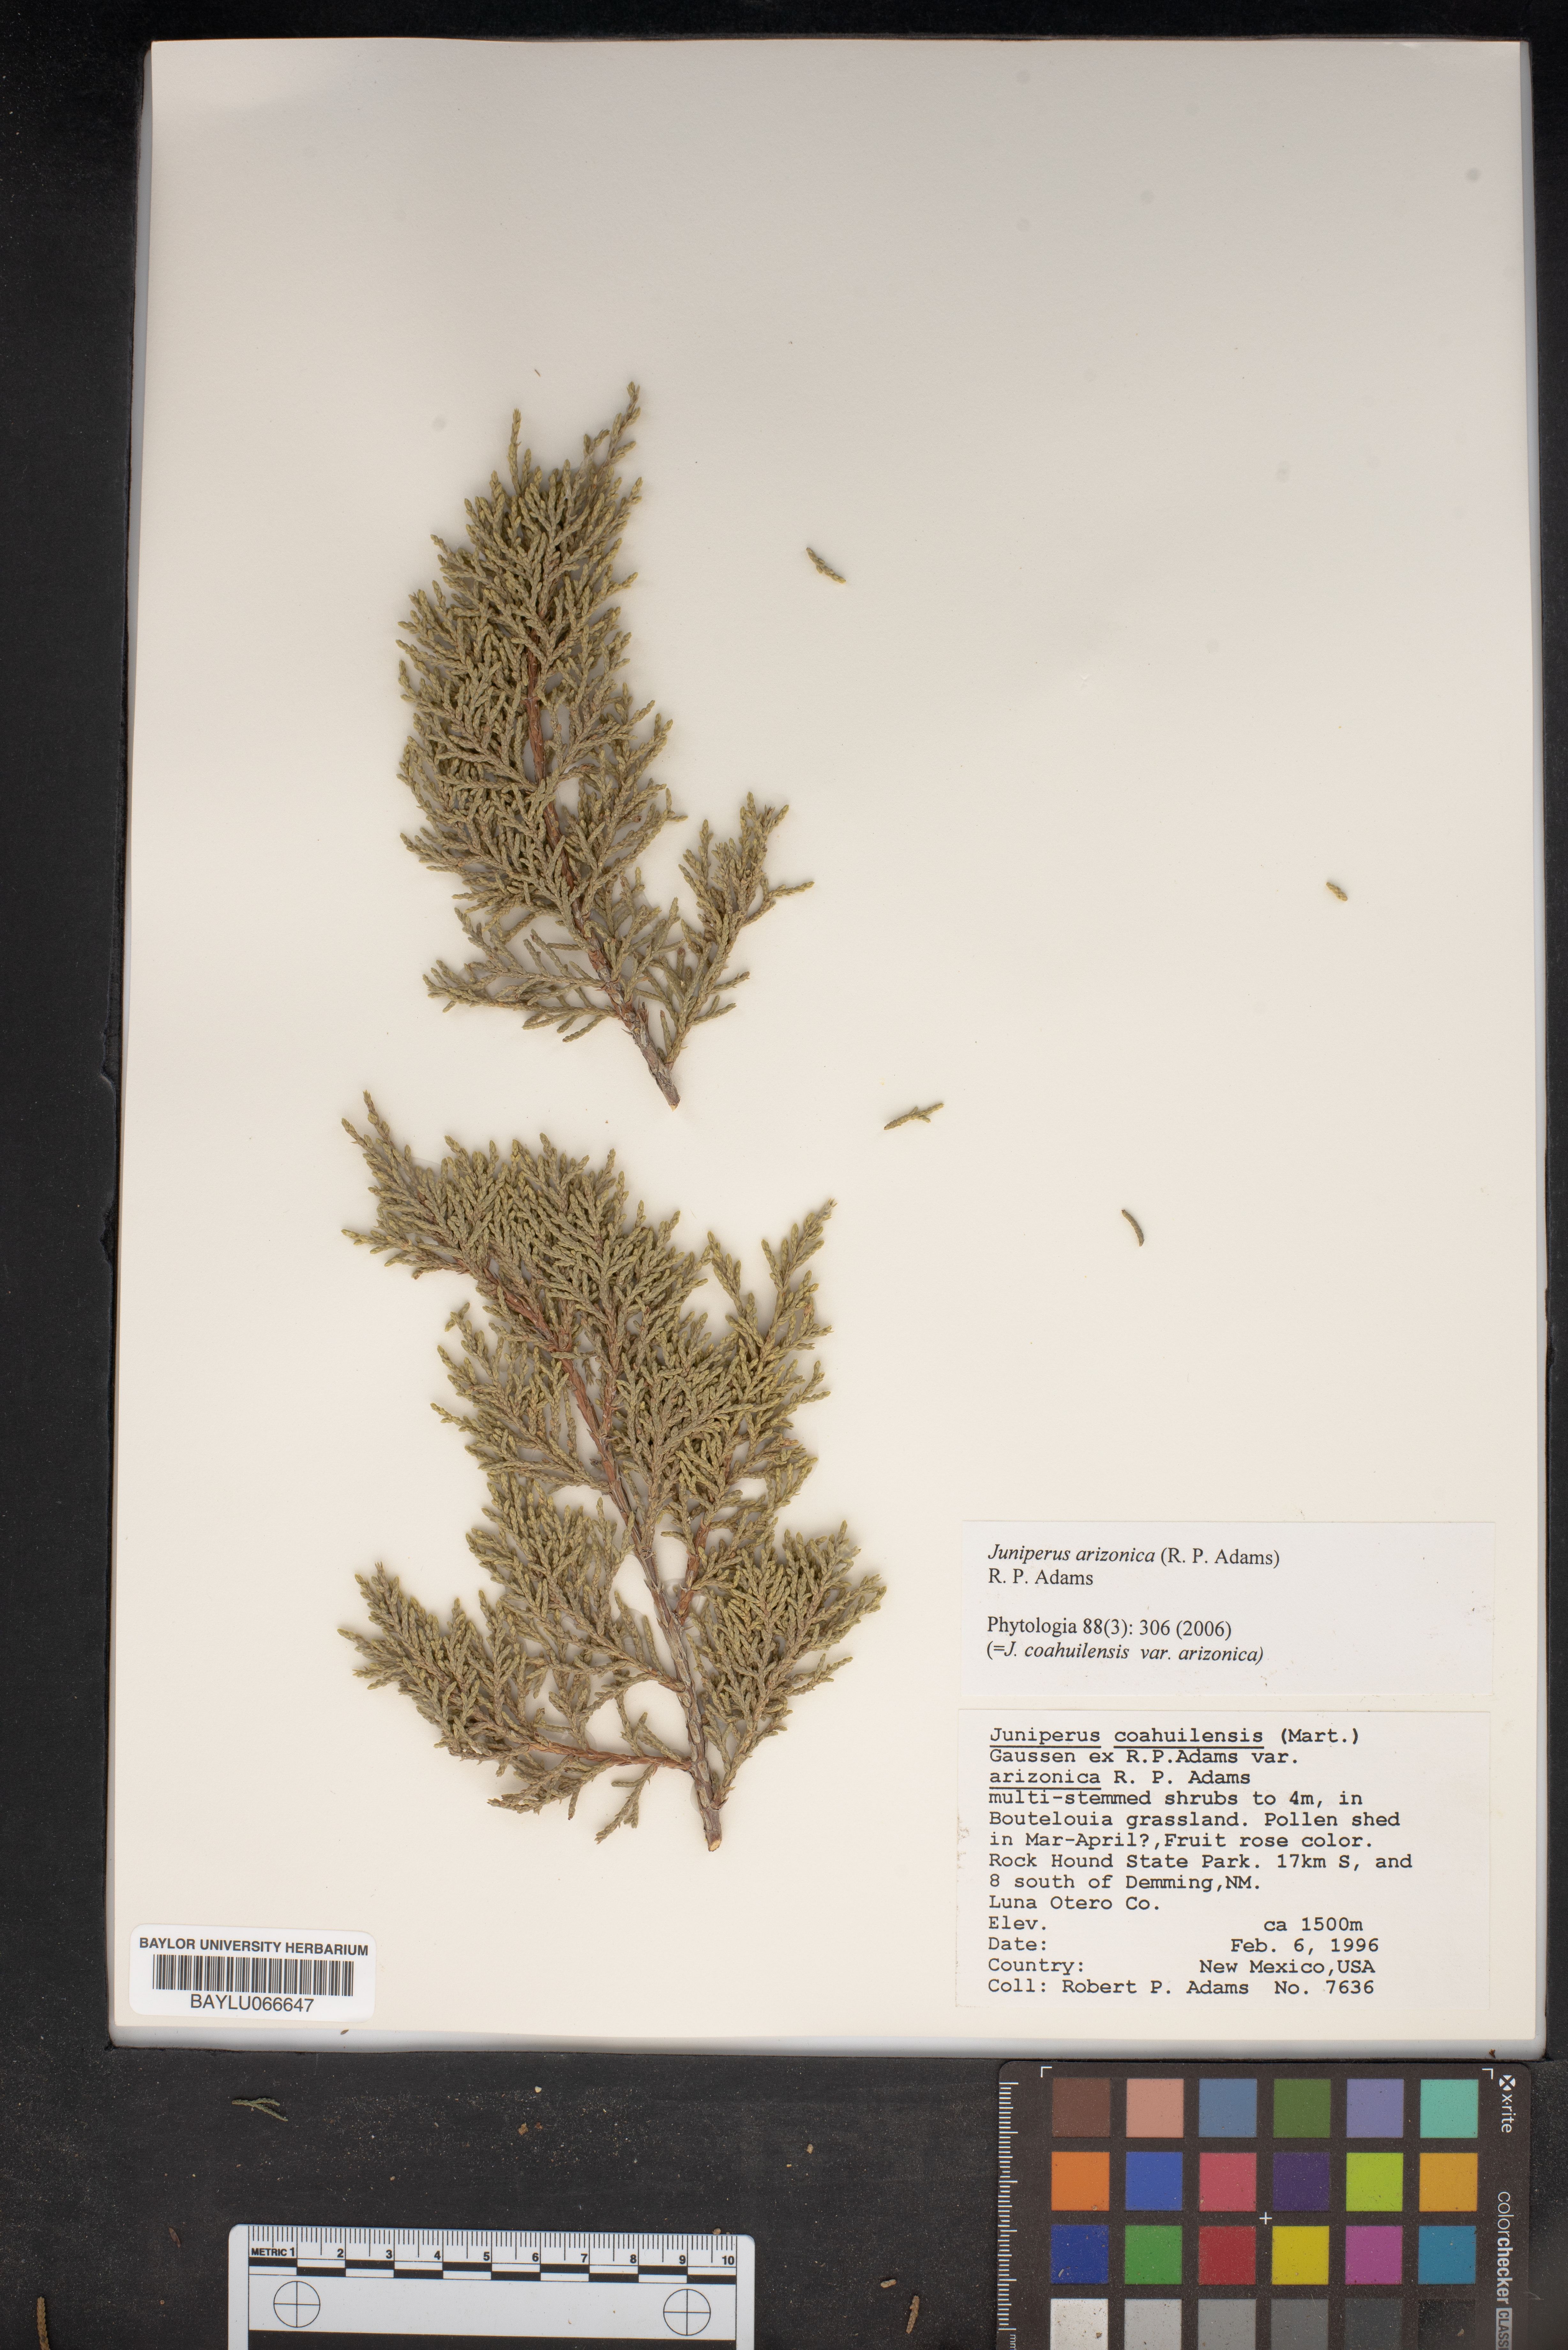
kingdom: Plantae
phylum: Tracheophyta
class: Pinopsida
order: Pinales
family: Cupressaceae
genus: Juniperus
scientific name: Juniperus arizonica
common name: Arizona juniper
